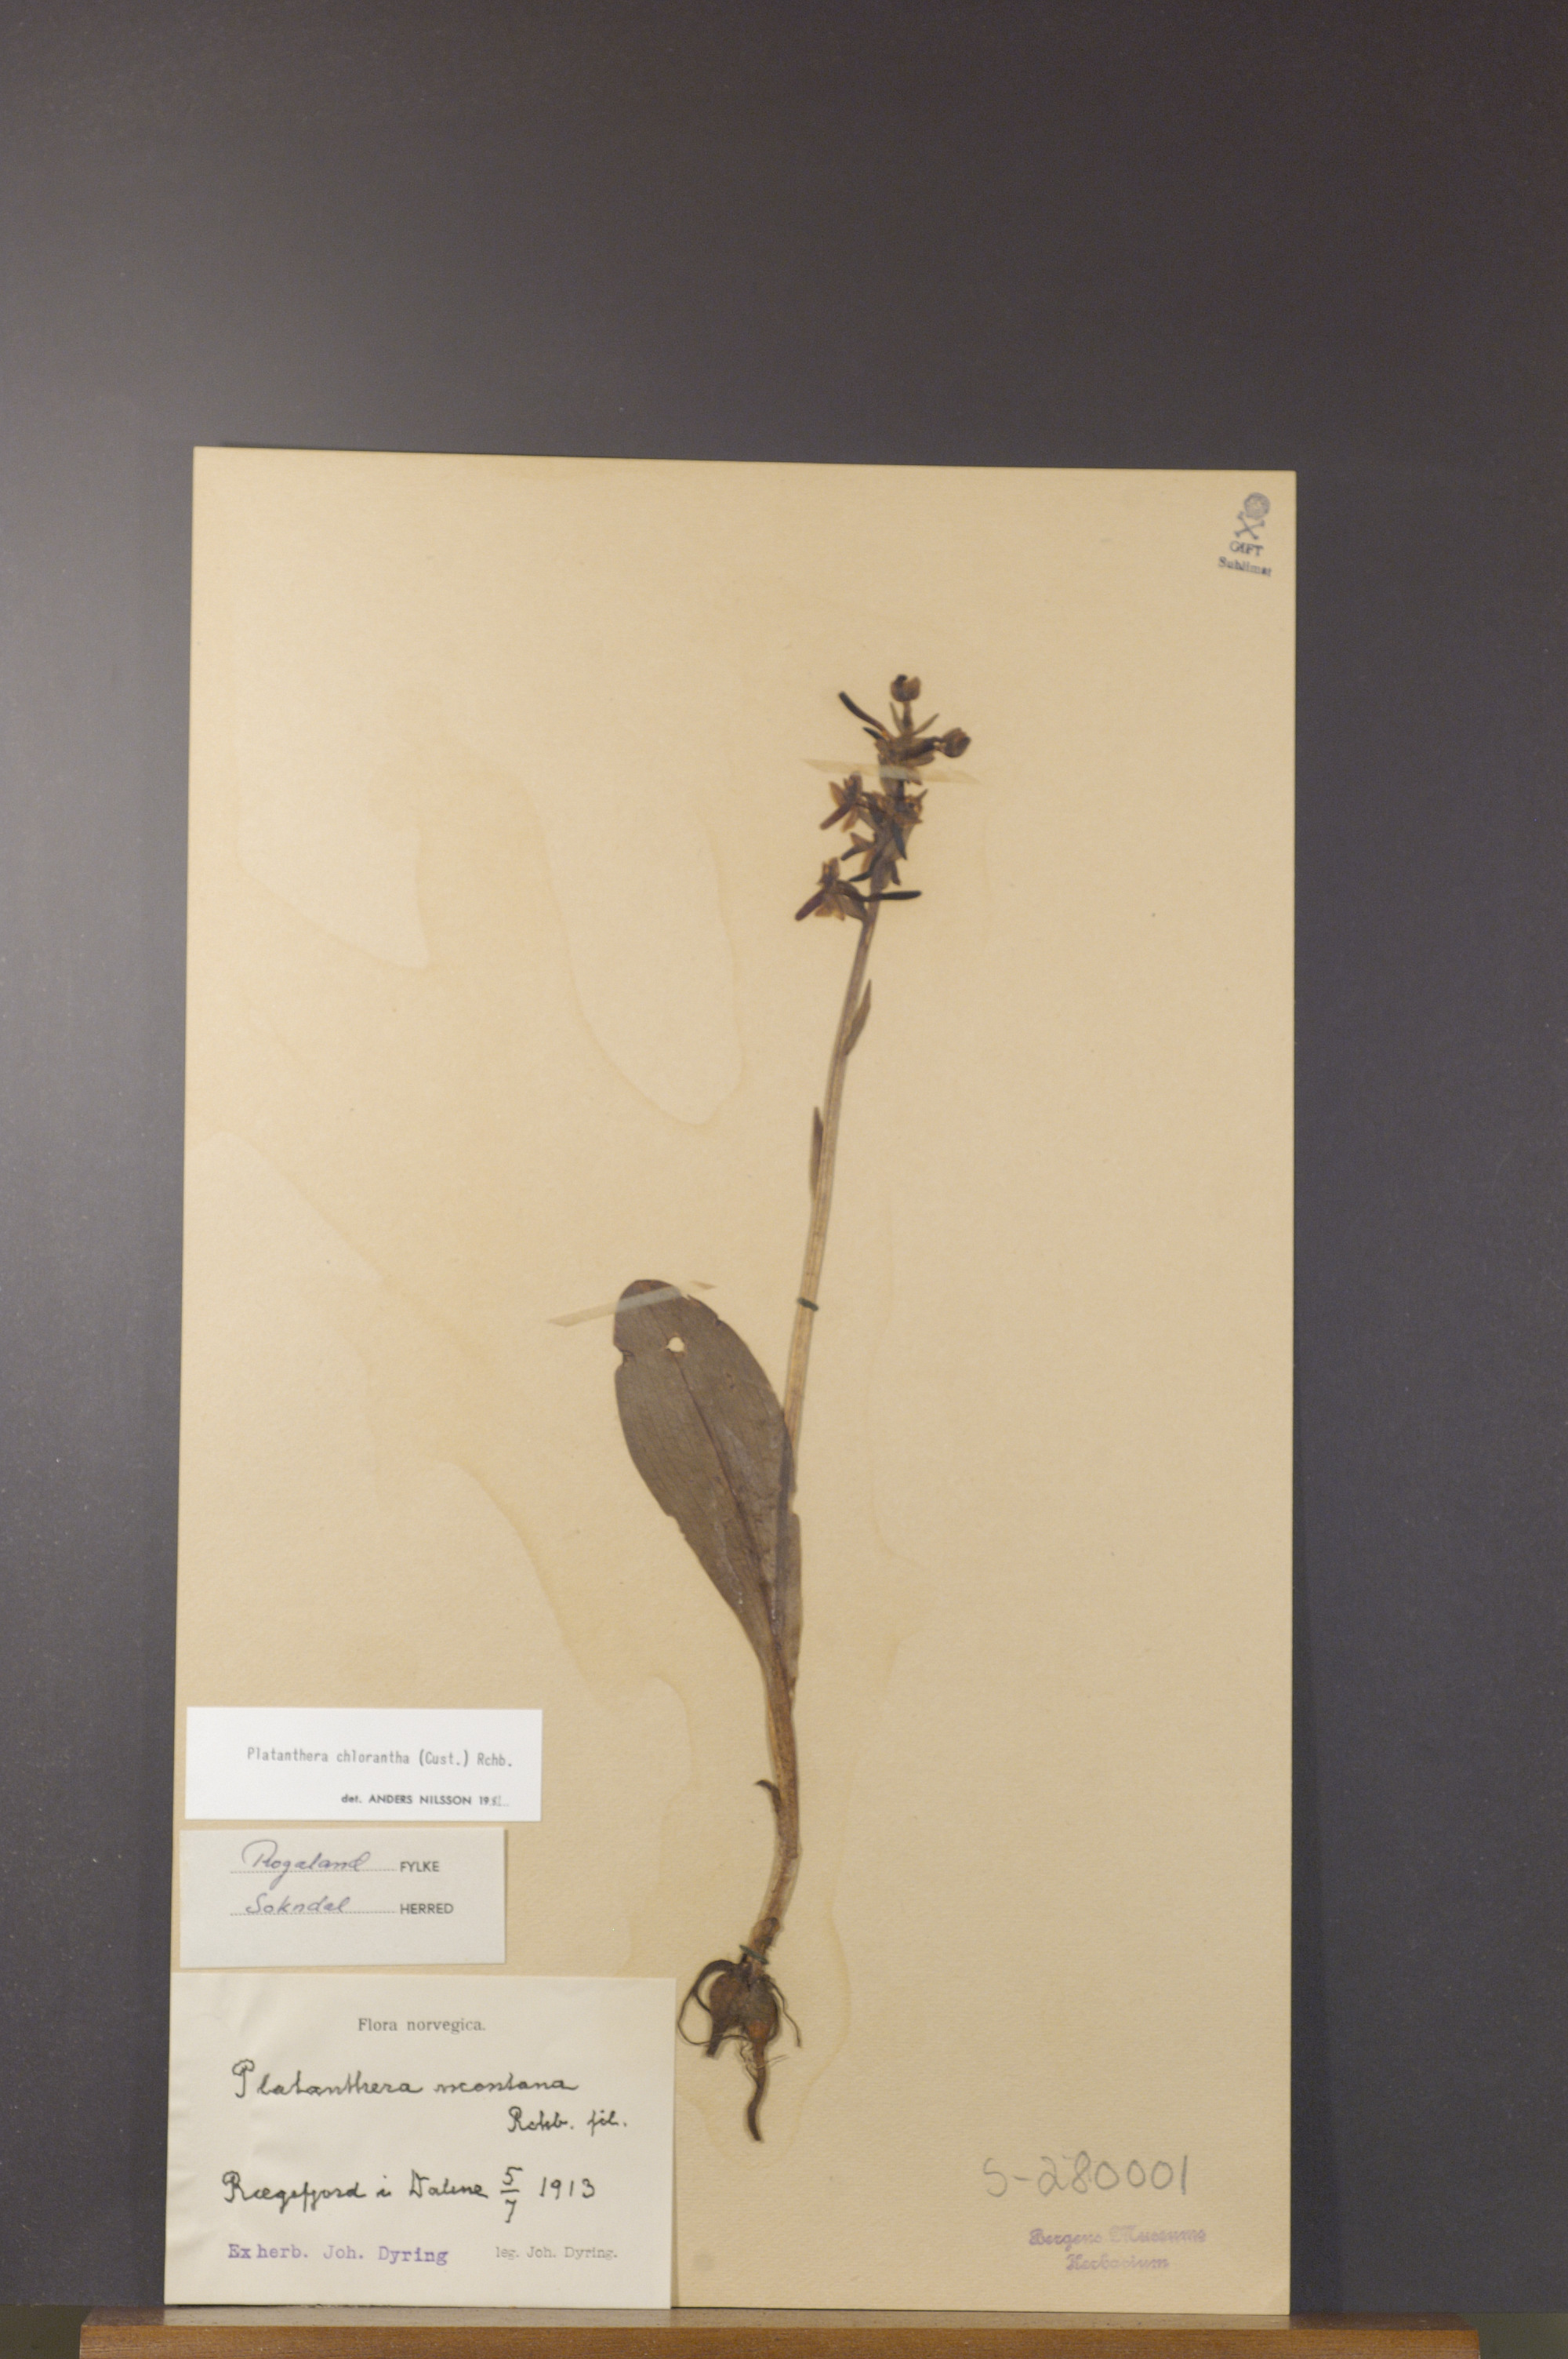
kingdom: Plantae
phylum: Tracheophyta
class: Liliopsida
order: Asparagales
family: Orchidaceae
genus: Platanthera
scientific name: Platanthera chlorantha
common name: Greater butterfly-orchid
